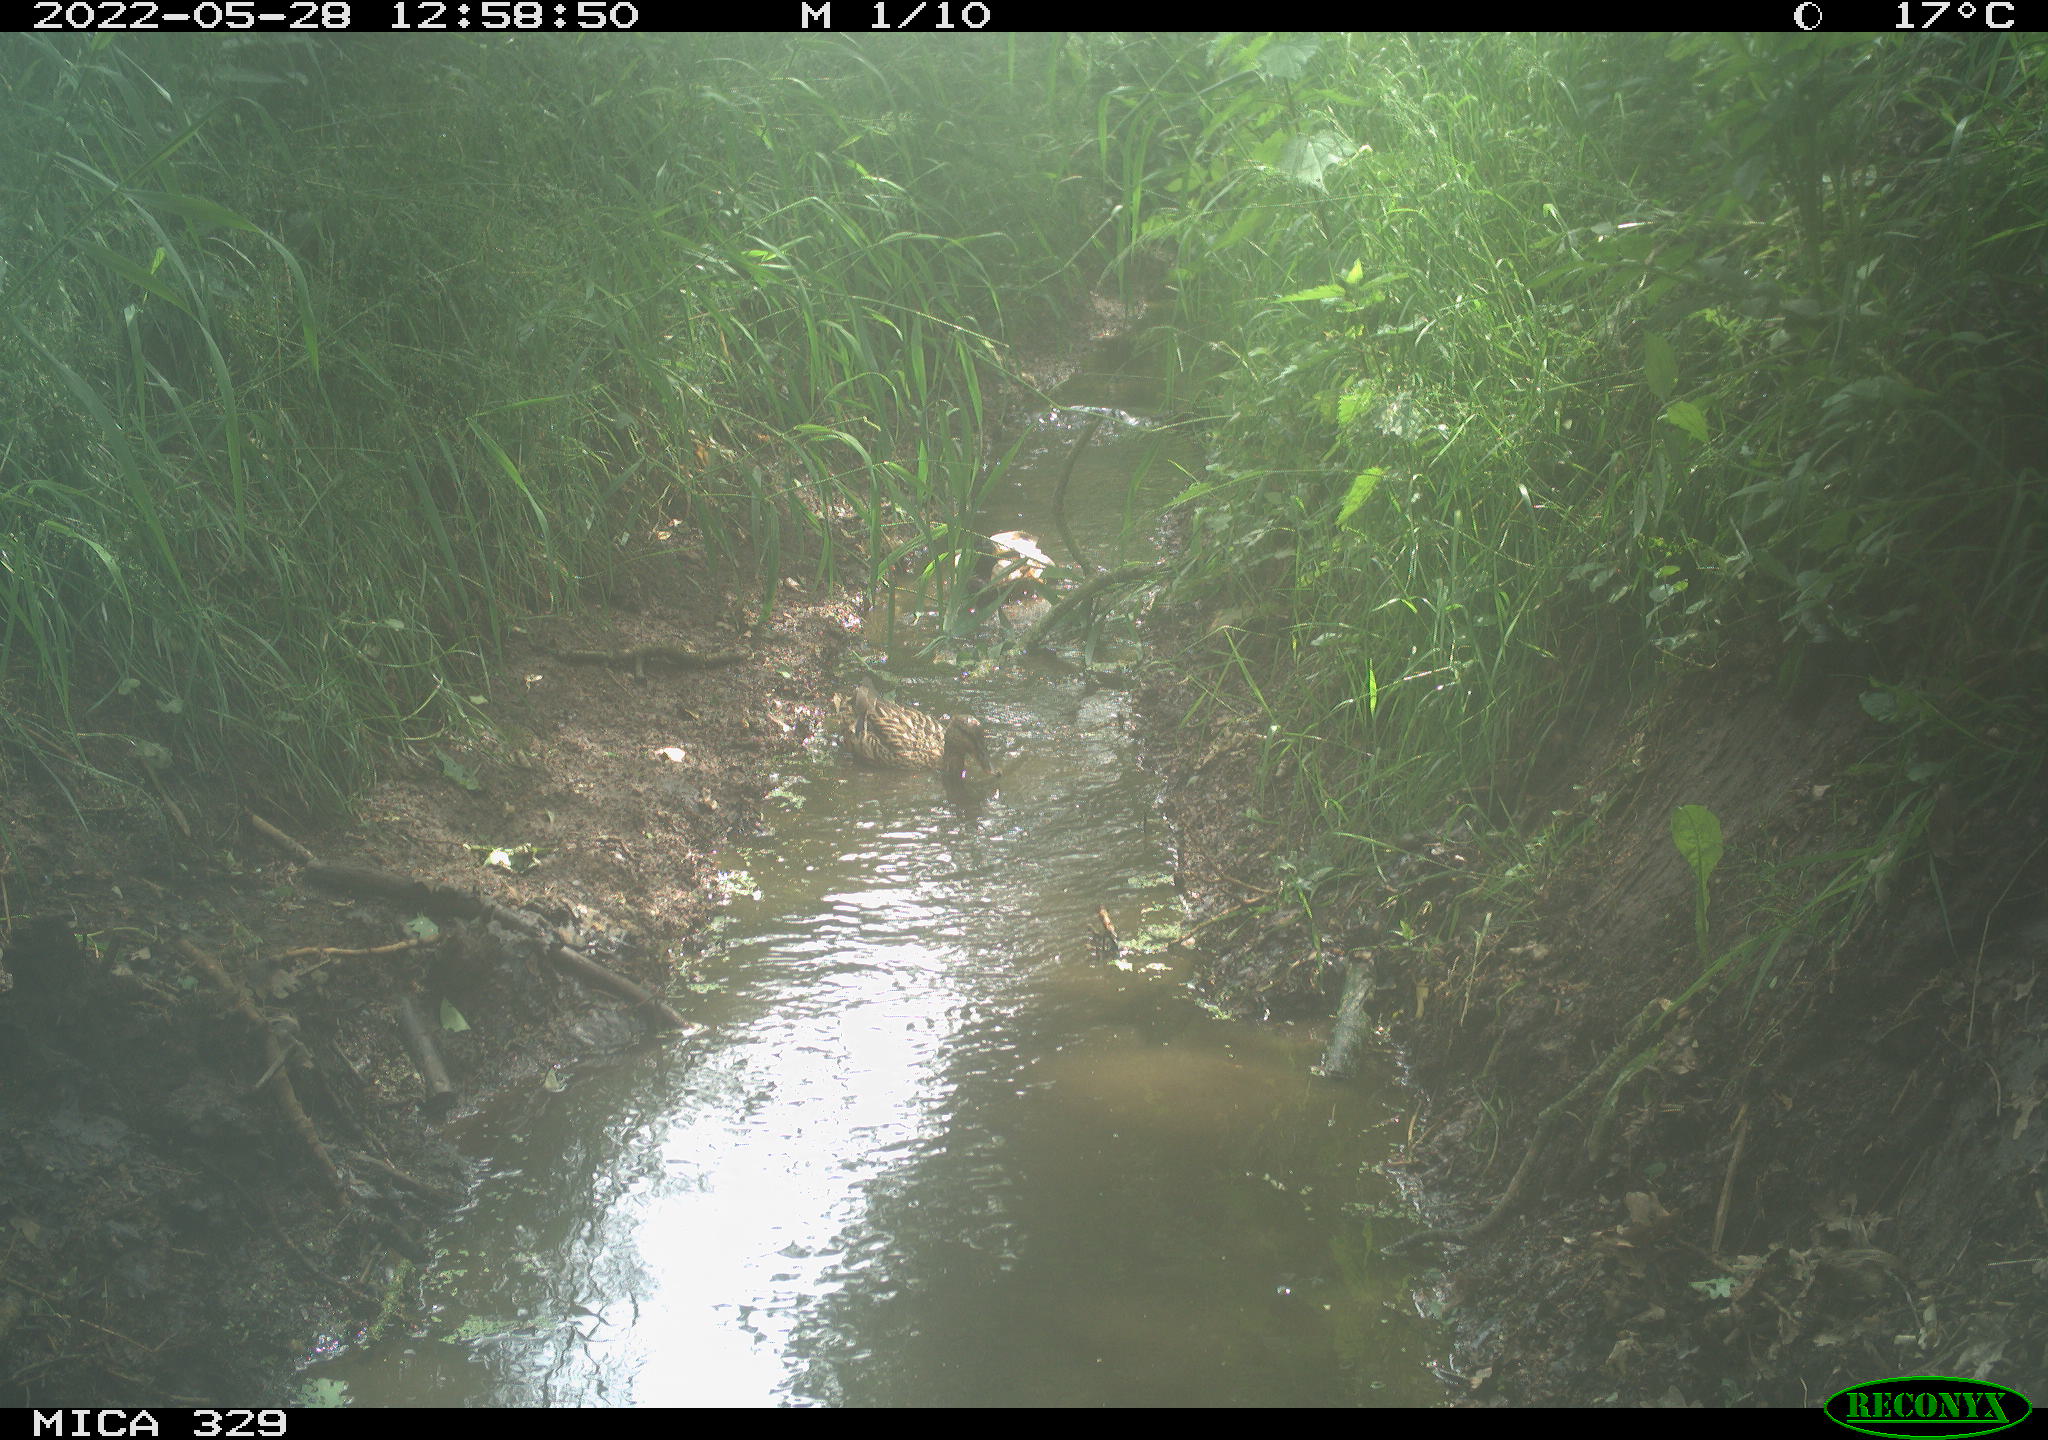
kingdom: Animalia
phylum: Chordata
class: Aves
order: Anseriformes
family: Anatidae
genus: Anas
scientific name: Anas platyrhynchos
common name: Mallard
